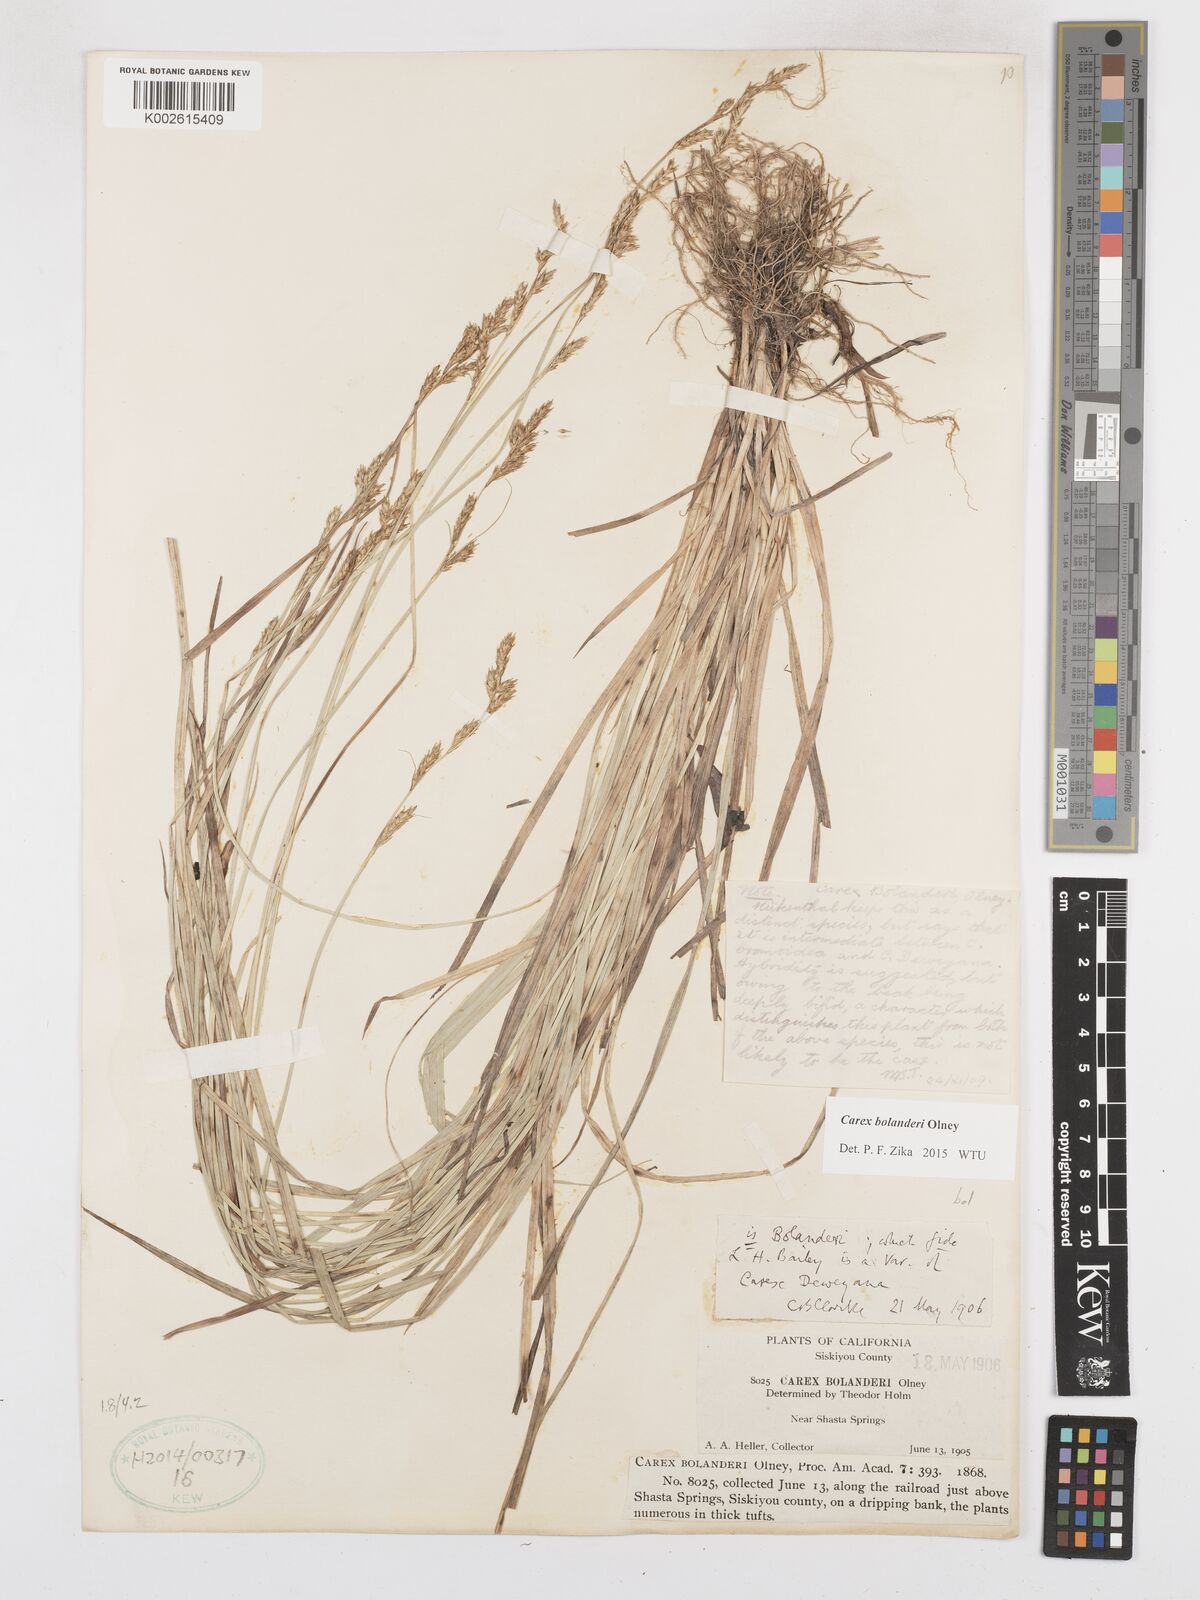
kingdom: Plantae
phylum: Tracheophyta
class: Liliopsida
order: Poales
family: Cyperaceae
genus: Carex
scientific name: Carex bolanderi
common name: Bolander's sedge
